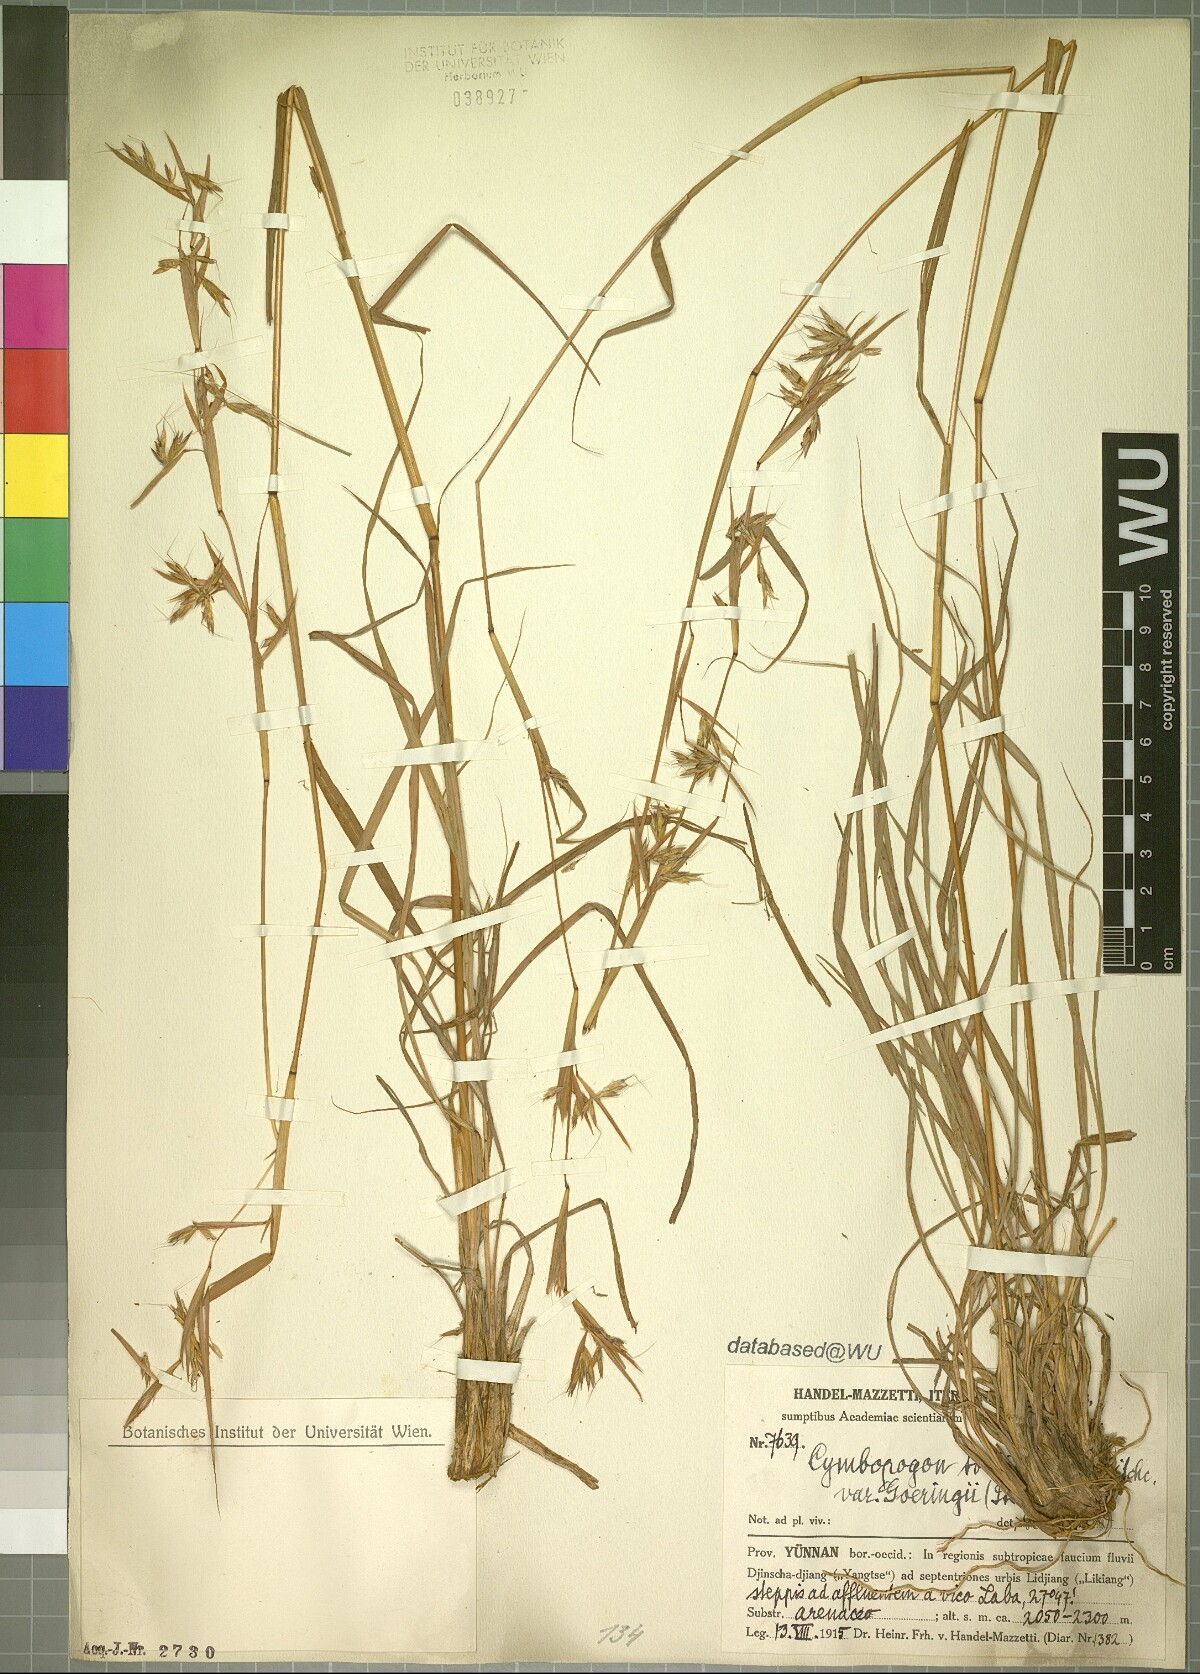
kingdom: Plantae
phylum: Tracheophyta
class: Liliopsida
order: Poales
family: Poaceae
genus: Cymbopogon
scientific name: Cymbopogon tortilis
